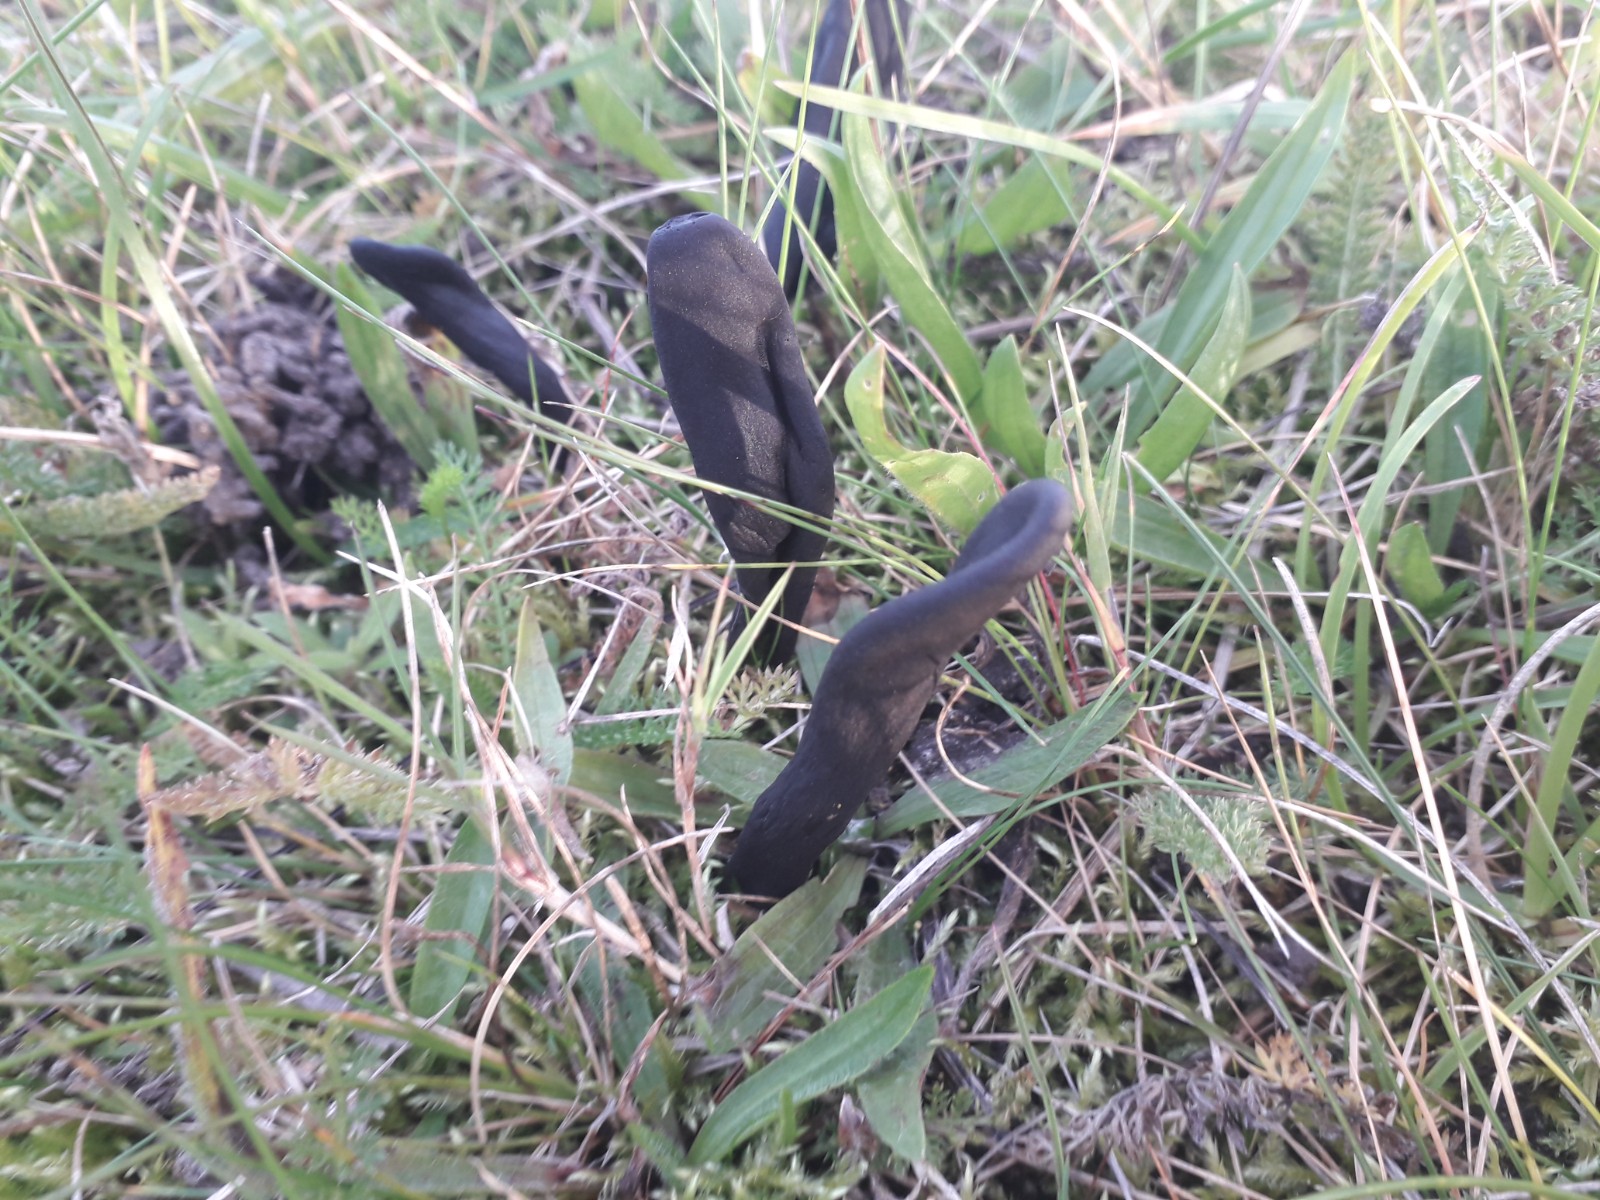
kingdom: Fungi
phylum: Ascomycota
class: Geoglossomycetes
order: Geoglossales
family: Geoglossaceae
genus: Geoglossum
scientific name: Geoglossum
